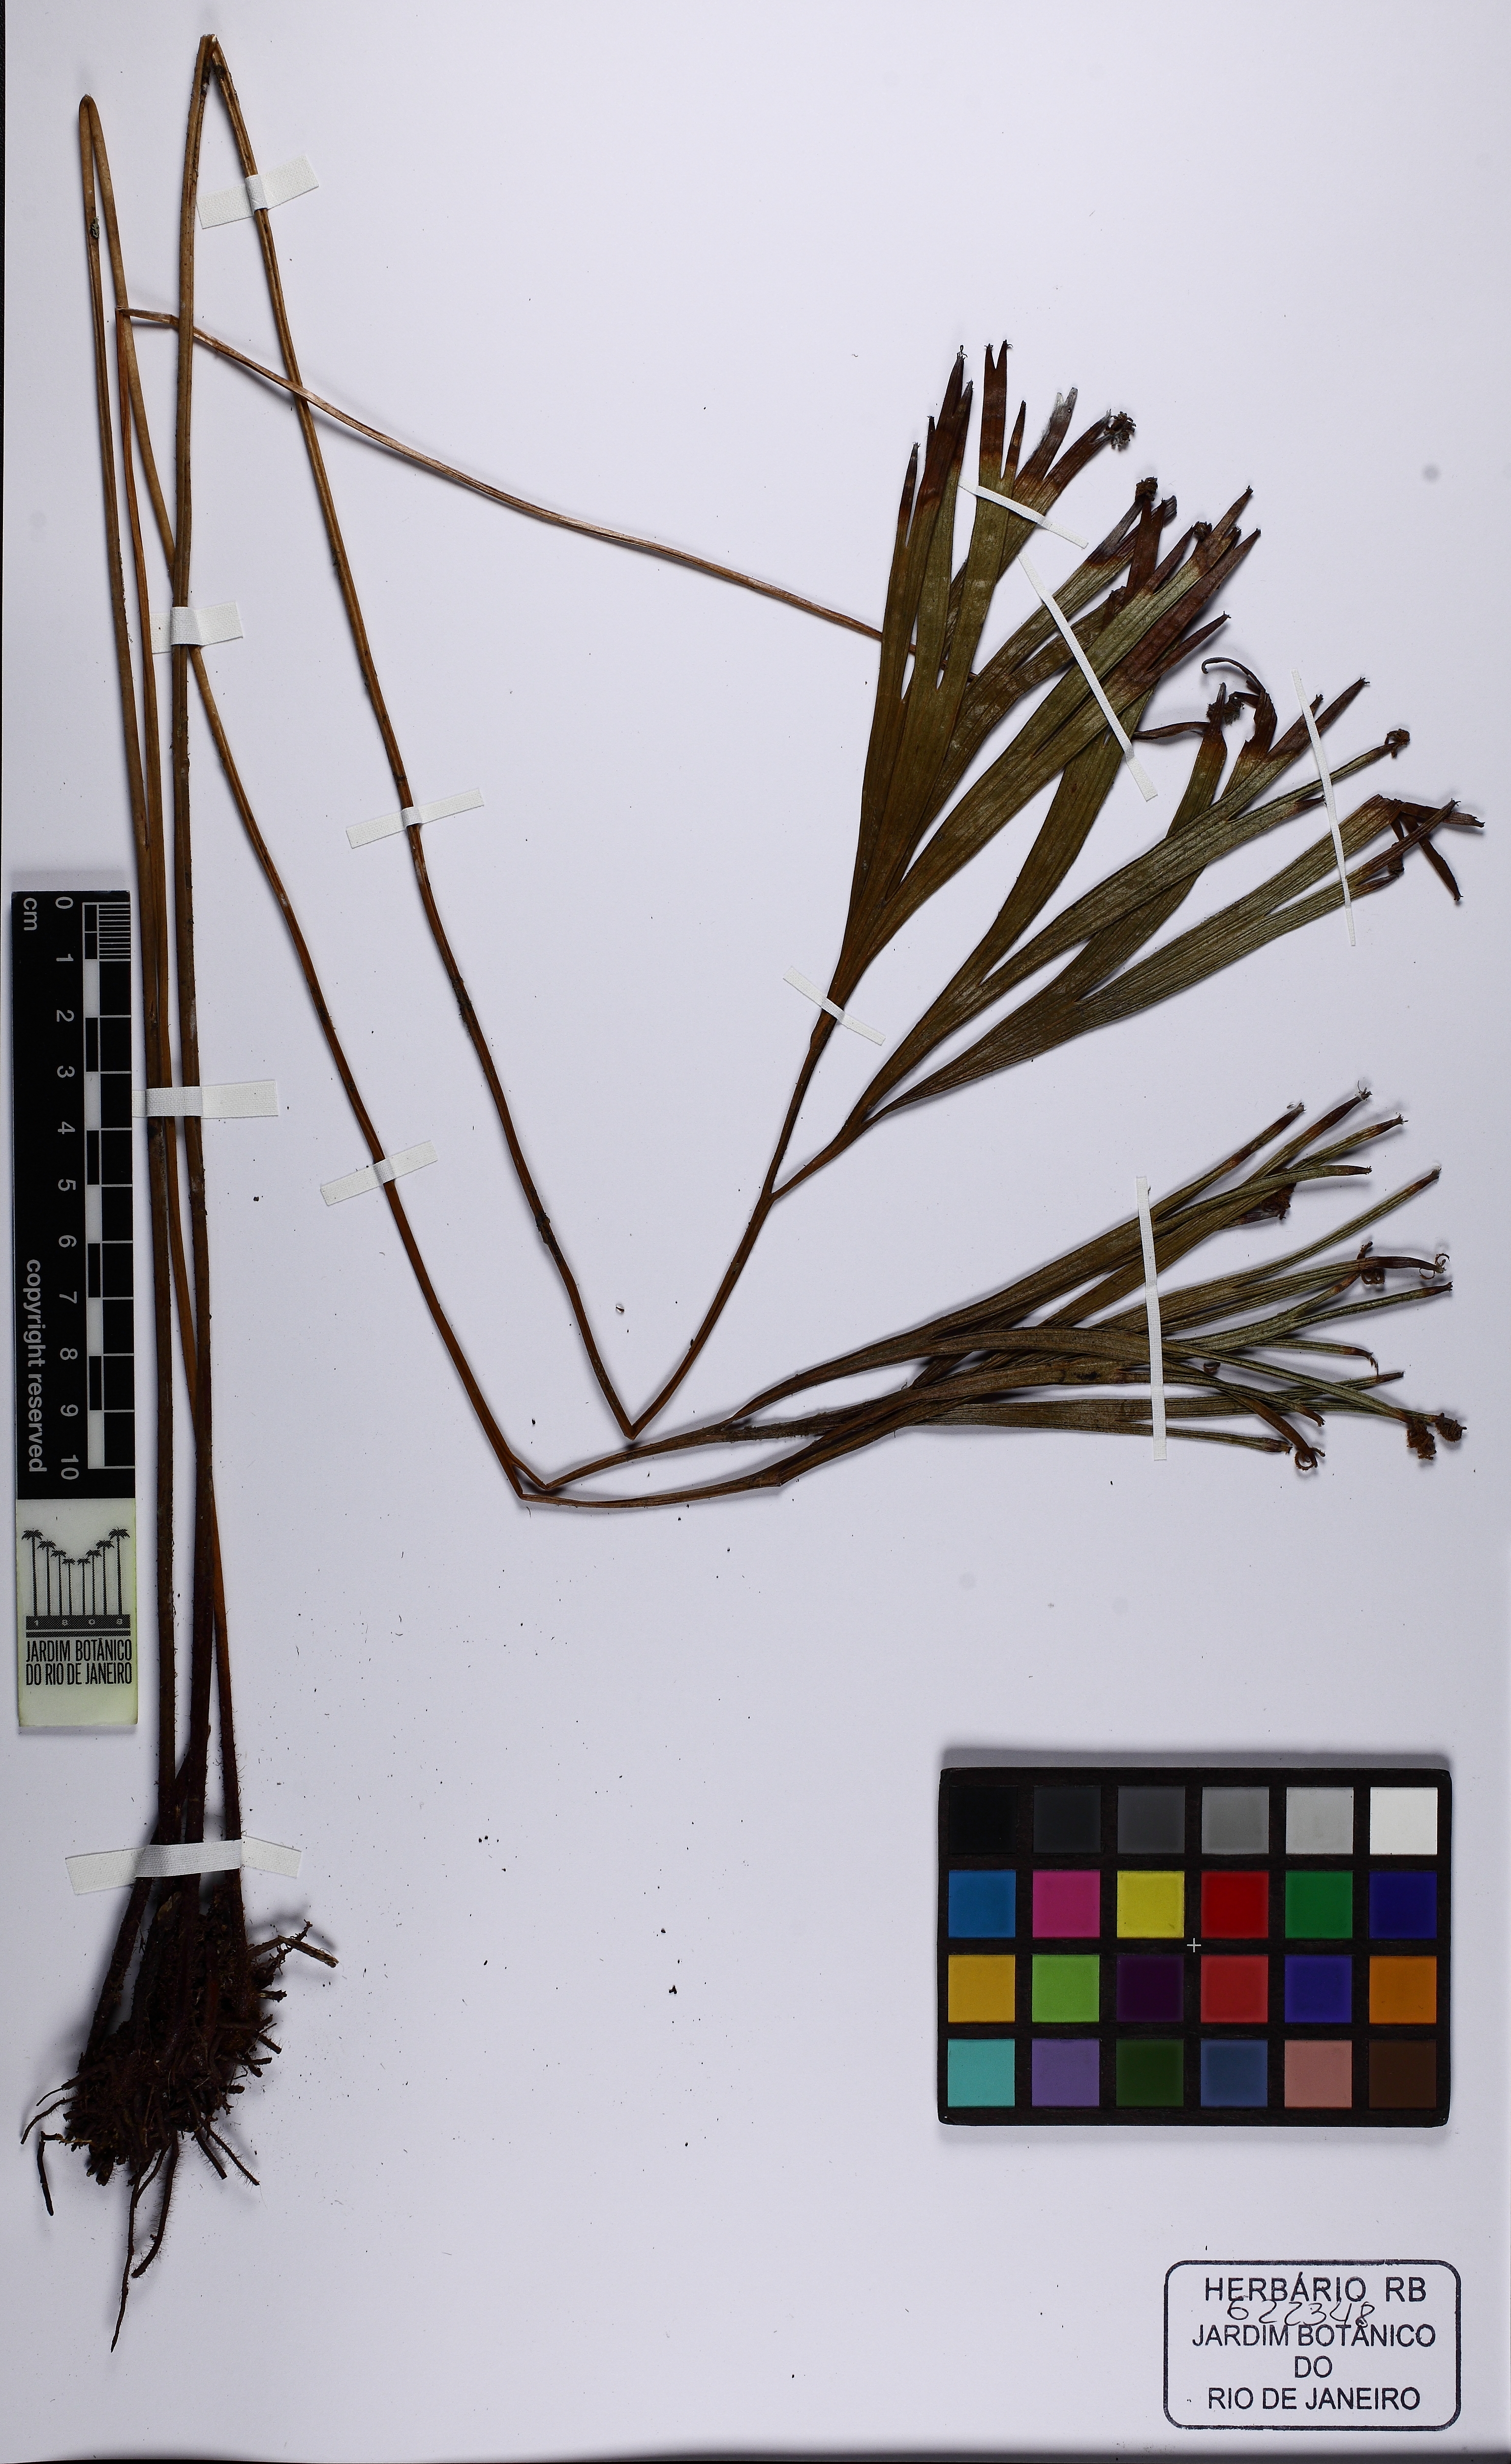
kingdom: Plantae
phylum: Tracheophyta
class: Polypodiopsida
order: Schizaeales
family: Schizaeaceae
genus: Schizaea
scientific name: Schizaea elegans
